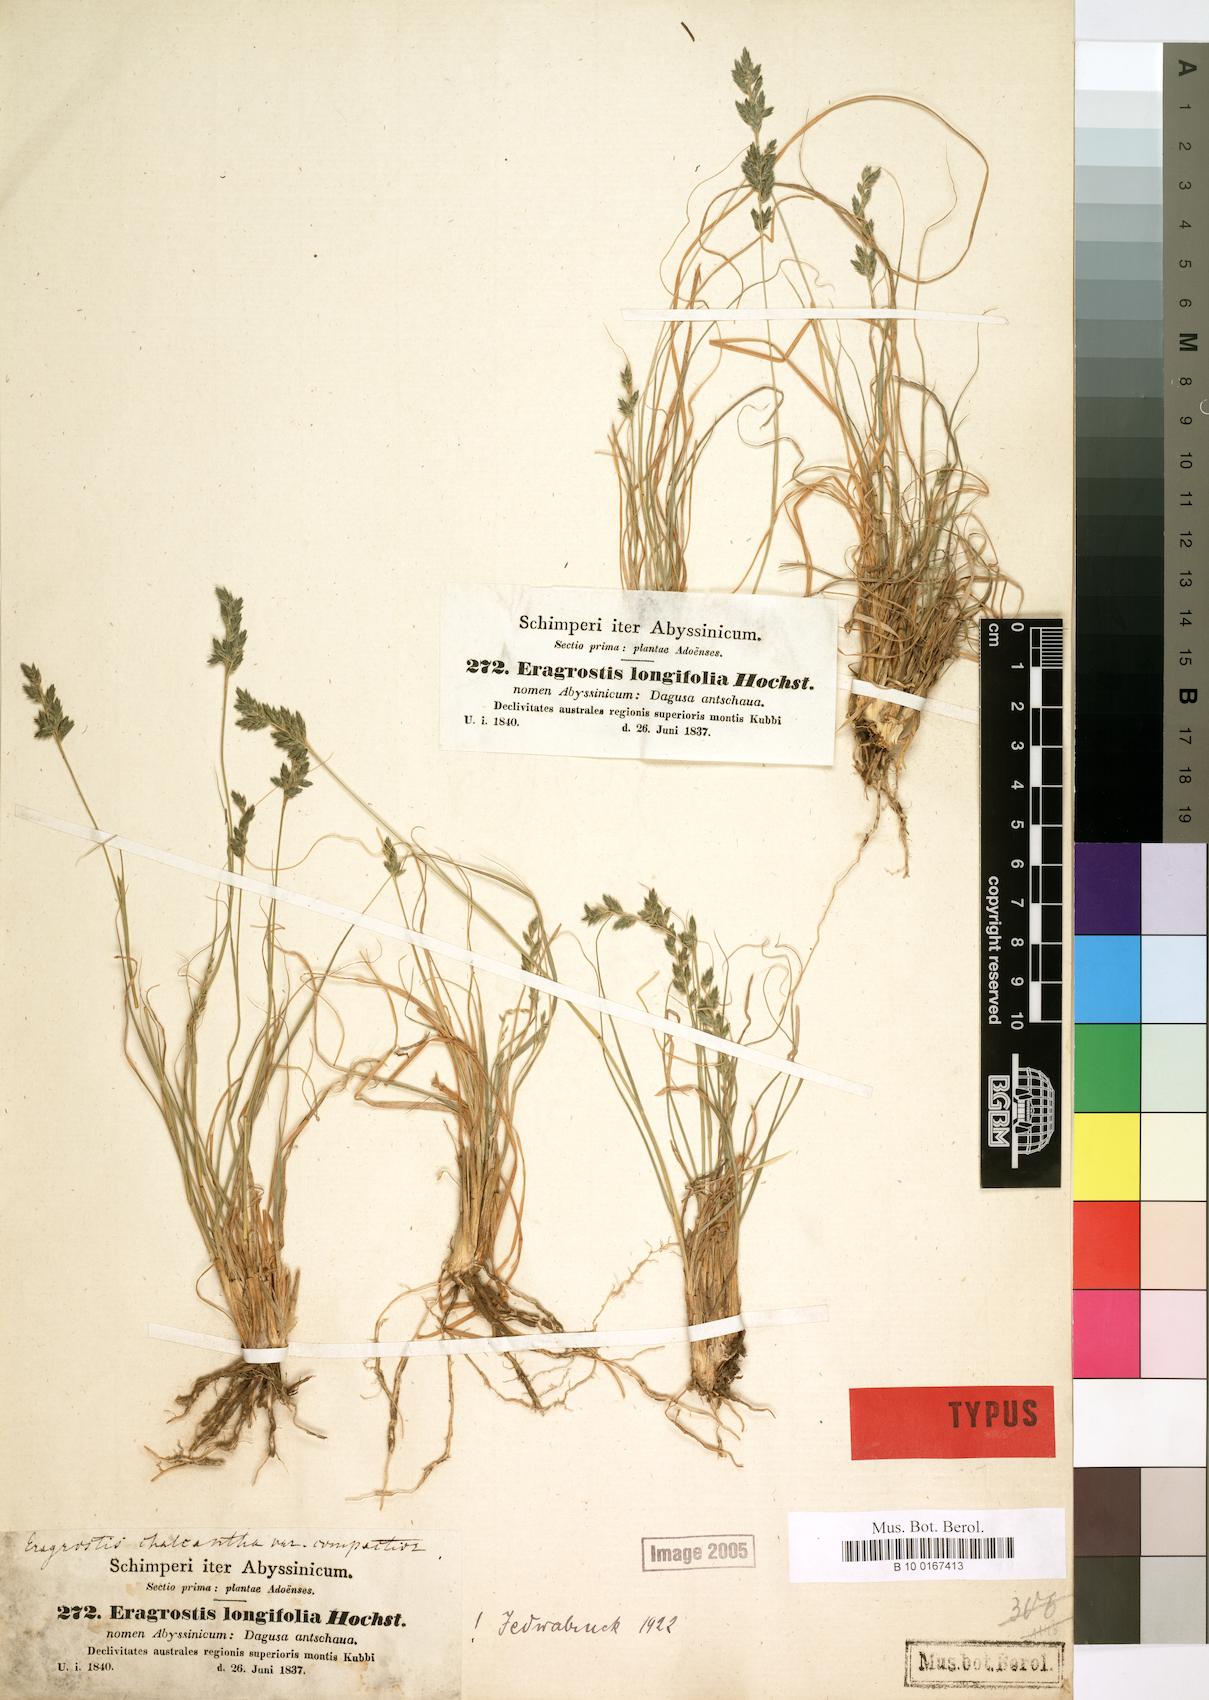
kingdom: Plantae
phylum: Tracheophyta
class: Liliopsida
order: Poales
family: Poaceae
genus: Eragrostis
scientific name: Eragrostis longifolia
